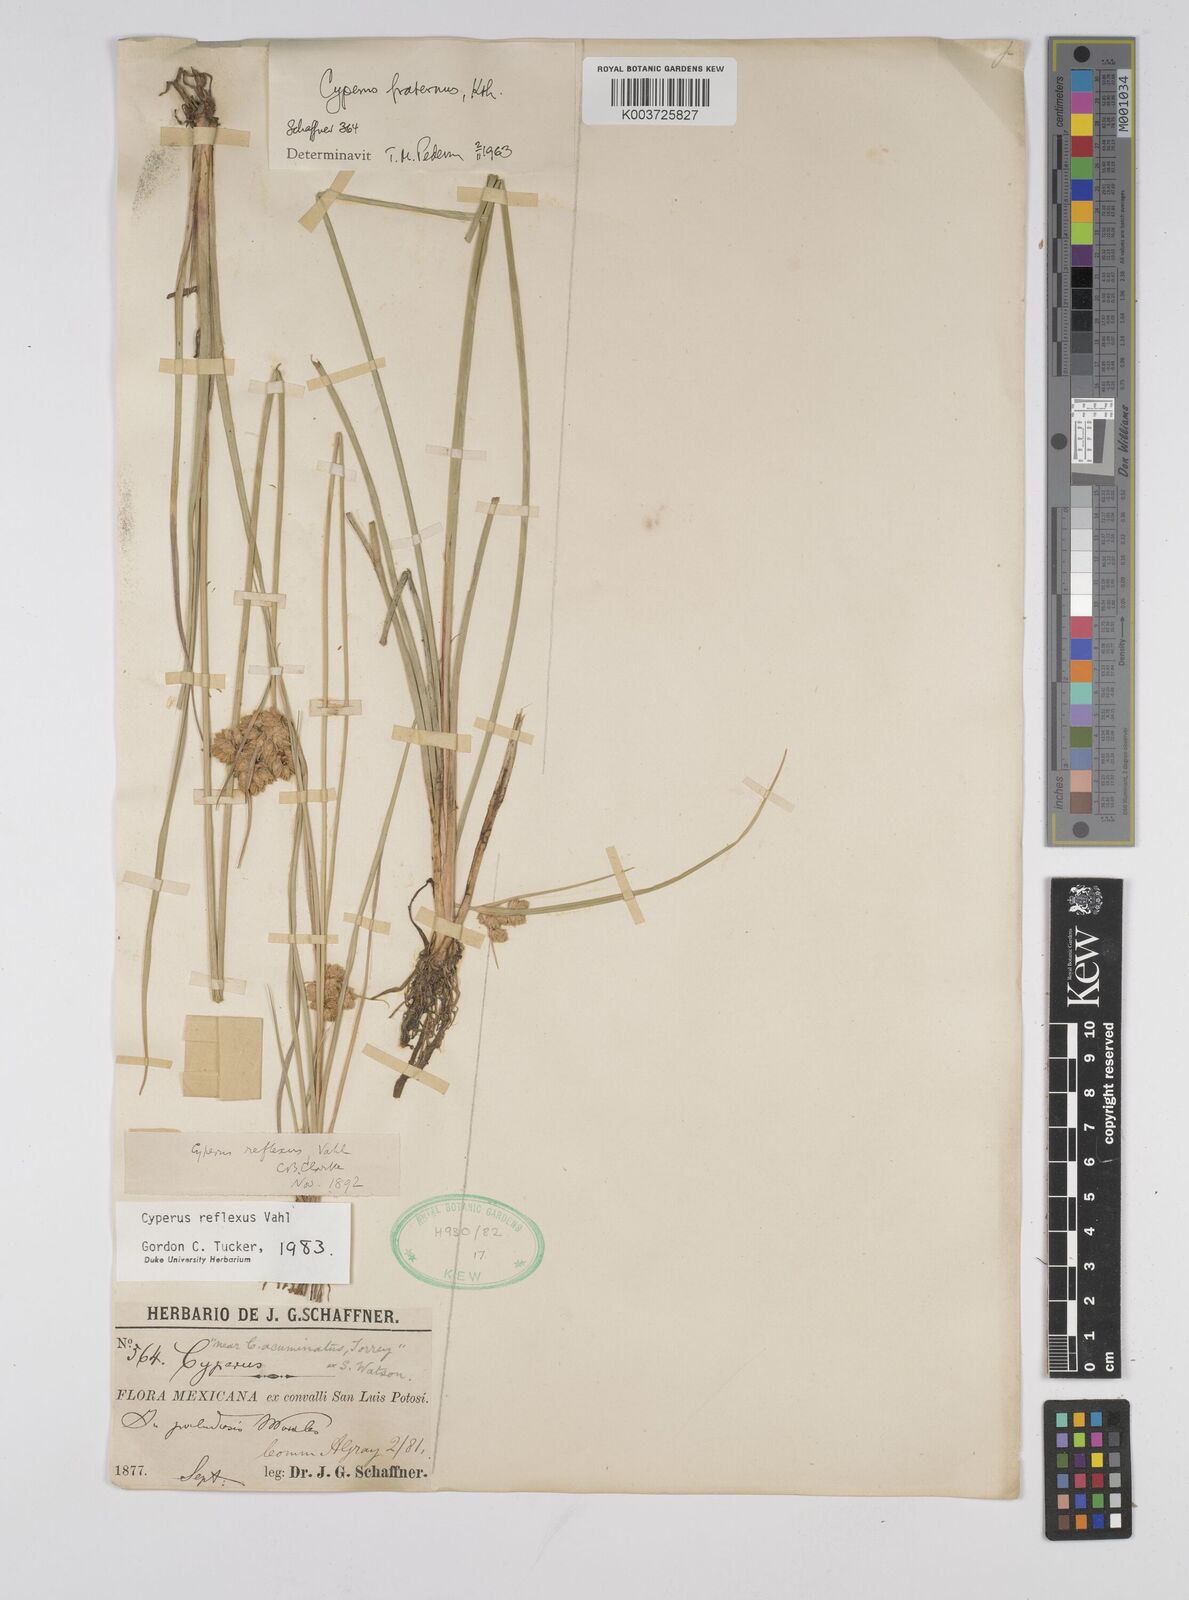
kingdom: Plantae
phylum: Tracheophyta
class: Liliopsida
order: Poales
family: Cyperaceae
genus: Cyperus
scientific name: Cyperus reflexus
